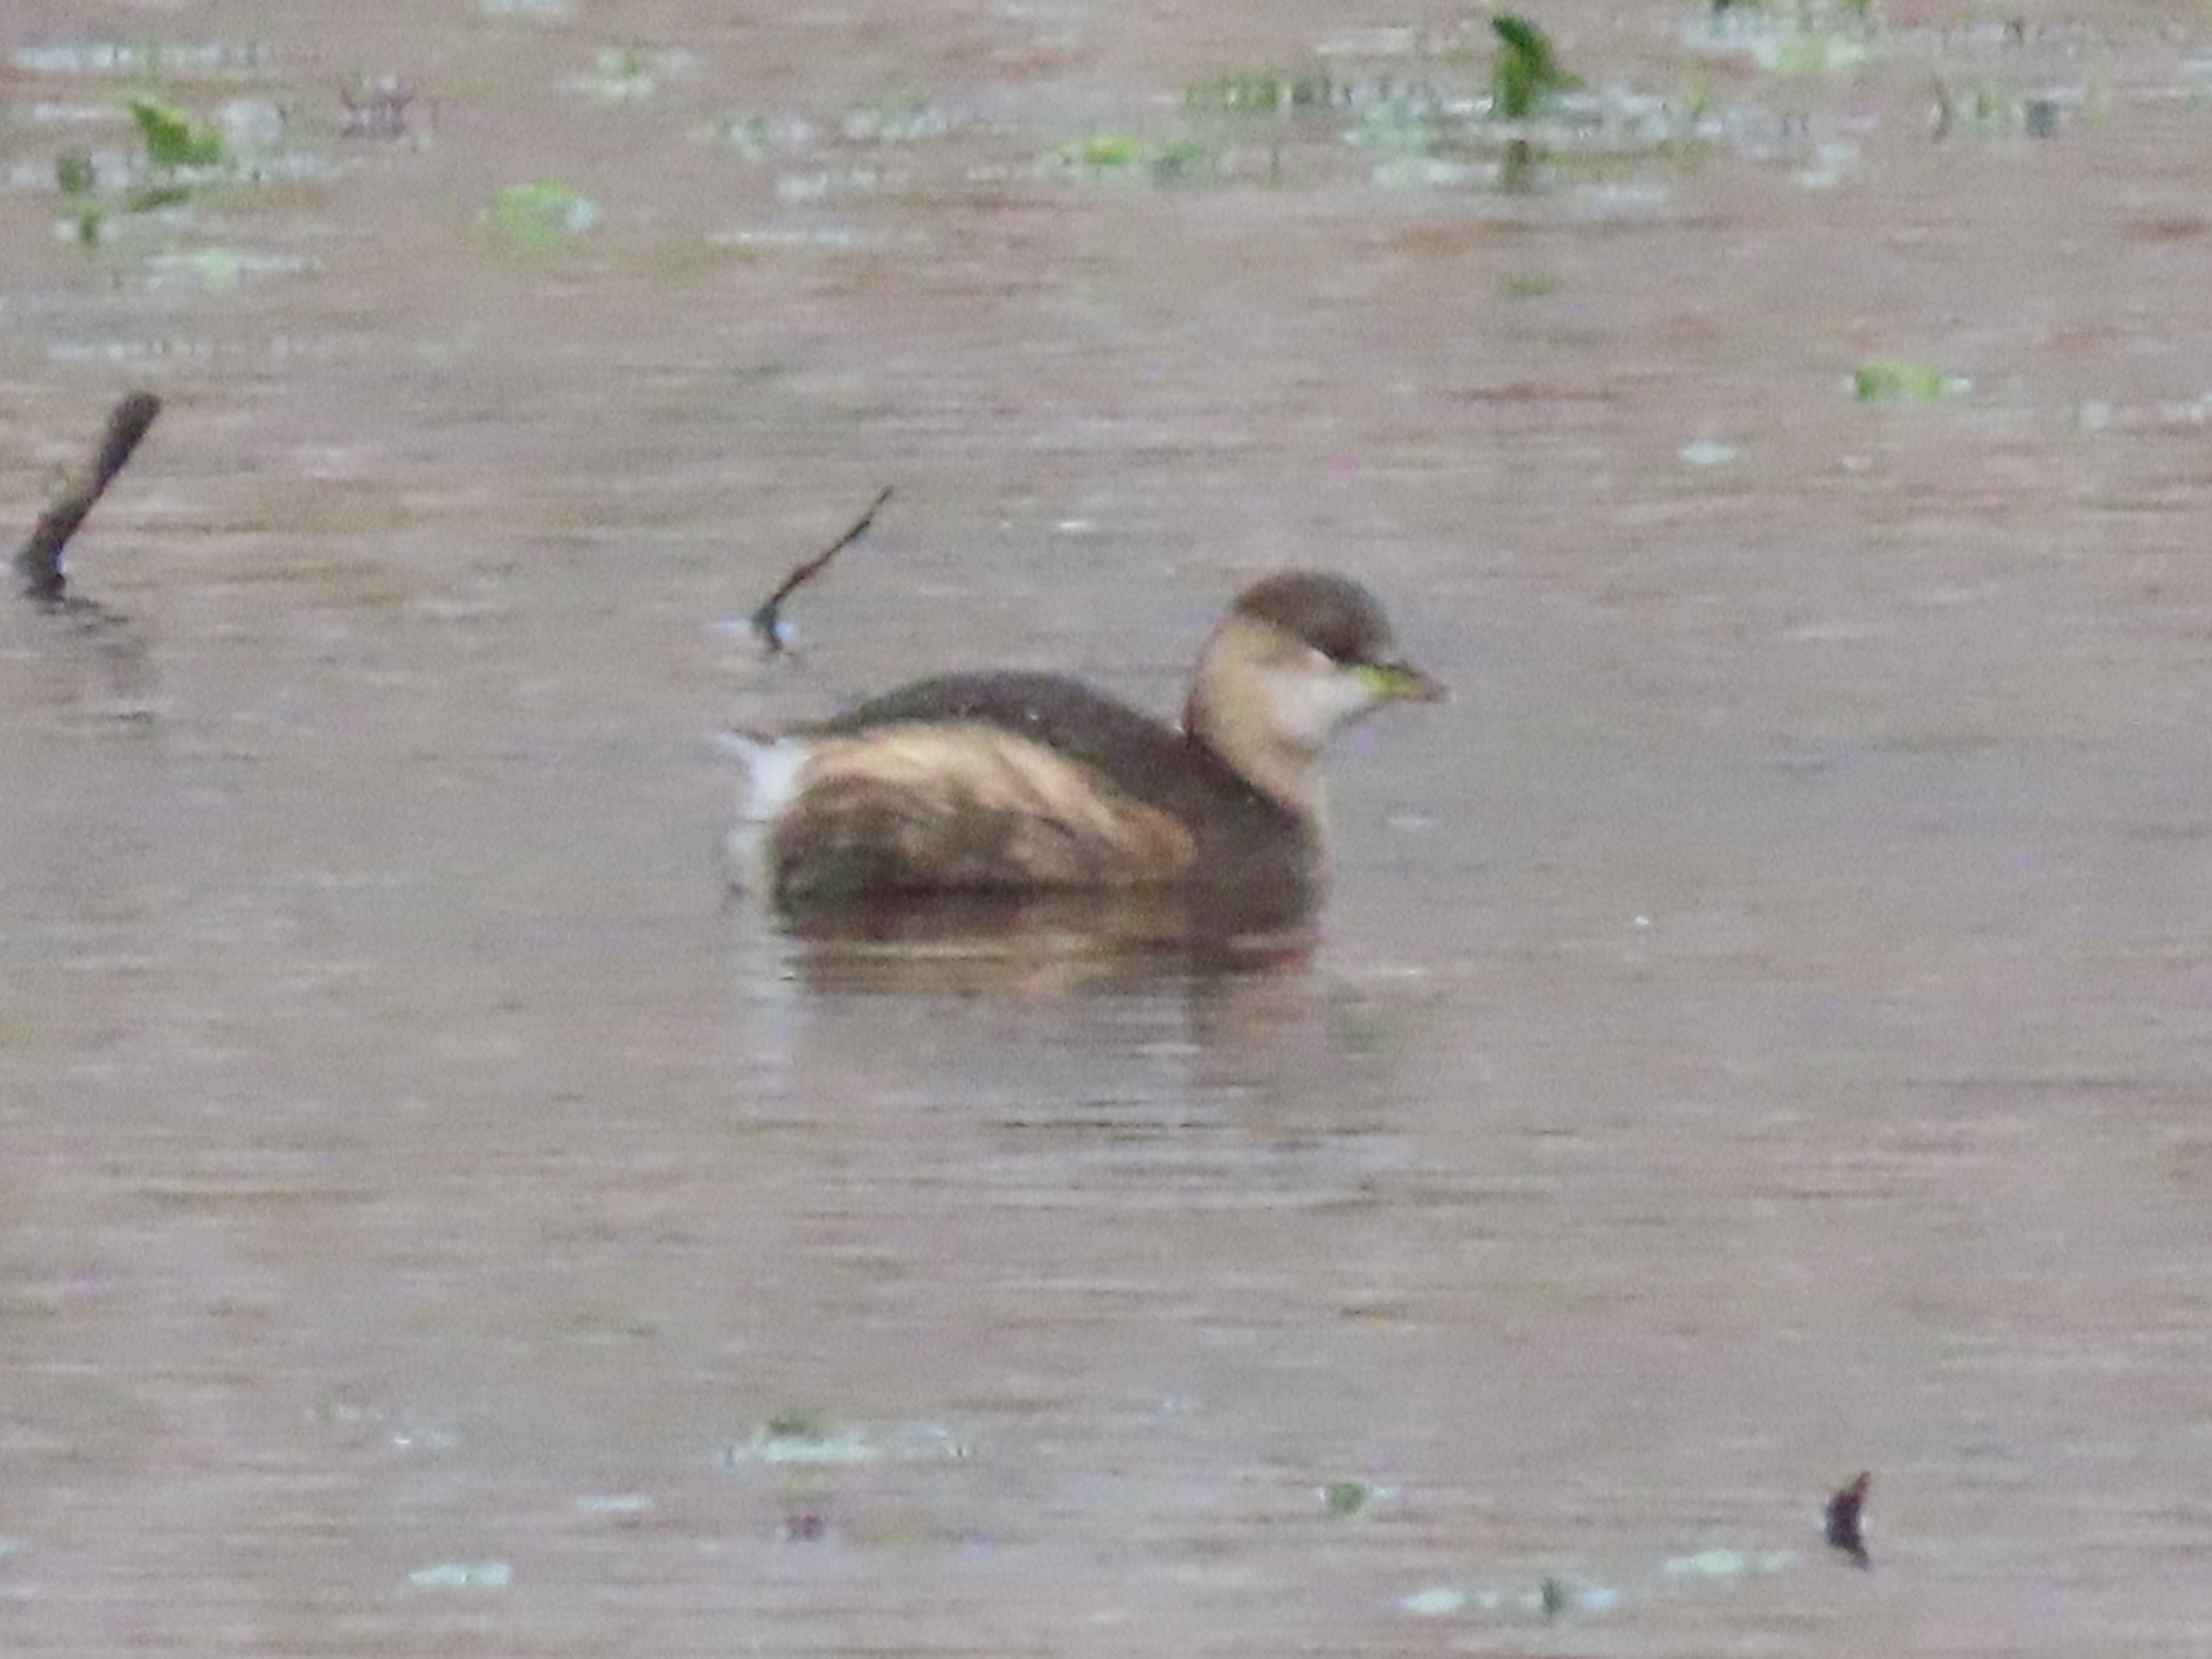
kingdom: Animalia
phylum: Chordata
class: Aves
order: Podicipediformes
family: Podicipedidae
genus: Tachybaptus
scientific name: Tachybaptus ruficollis
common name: Lille lappedykker
